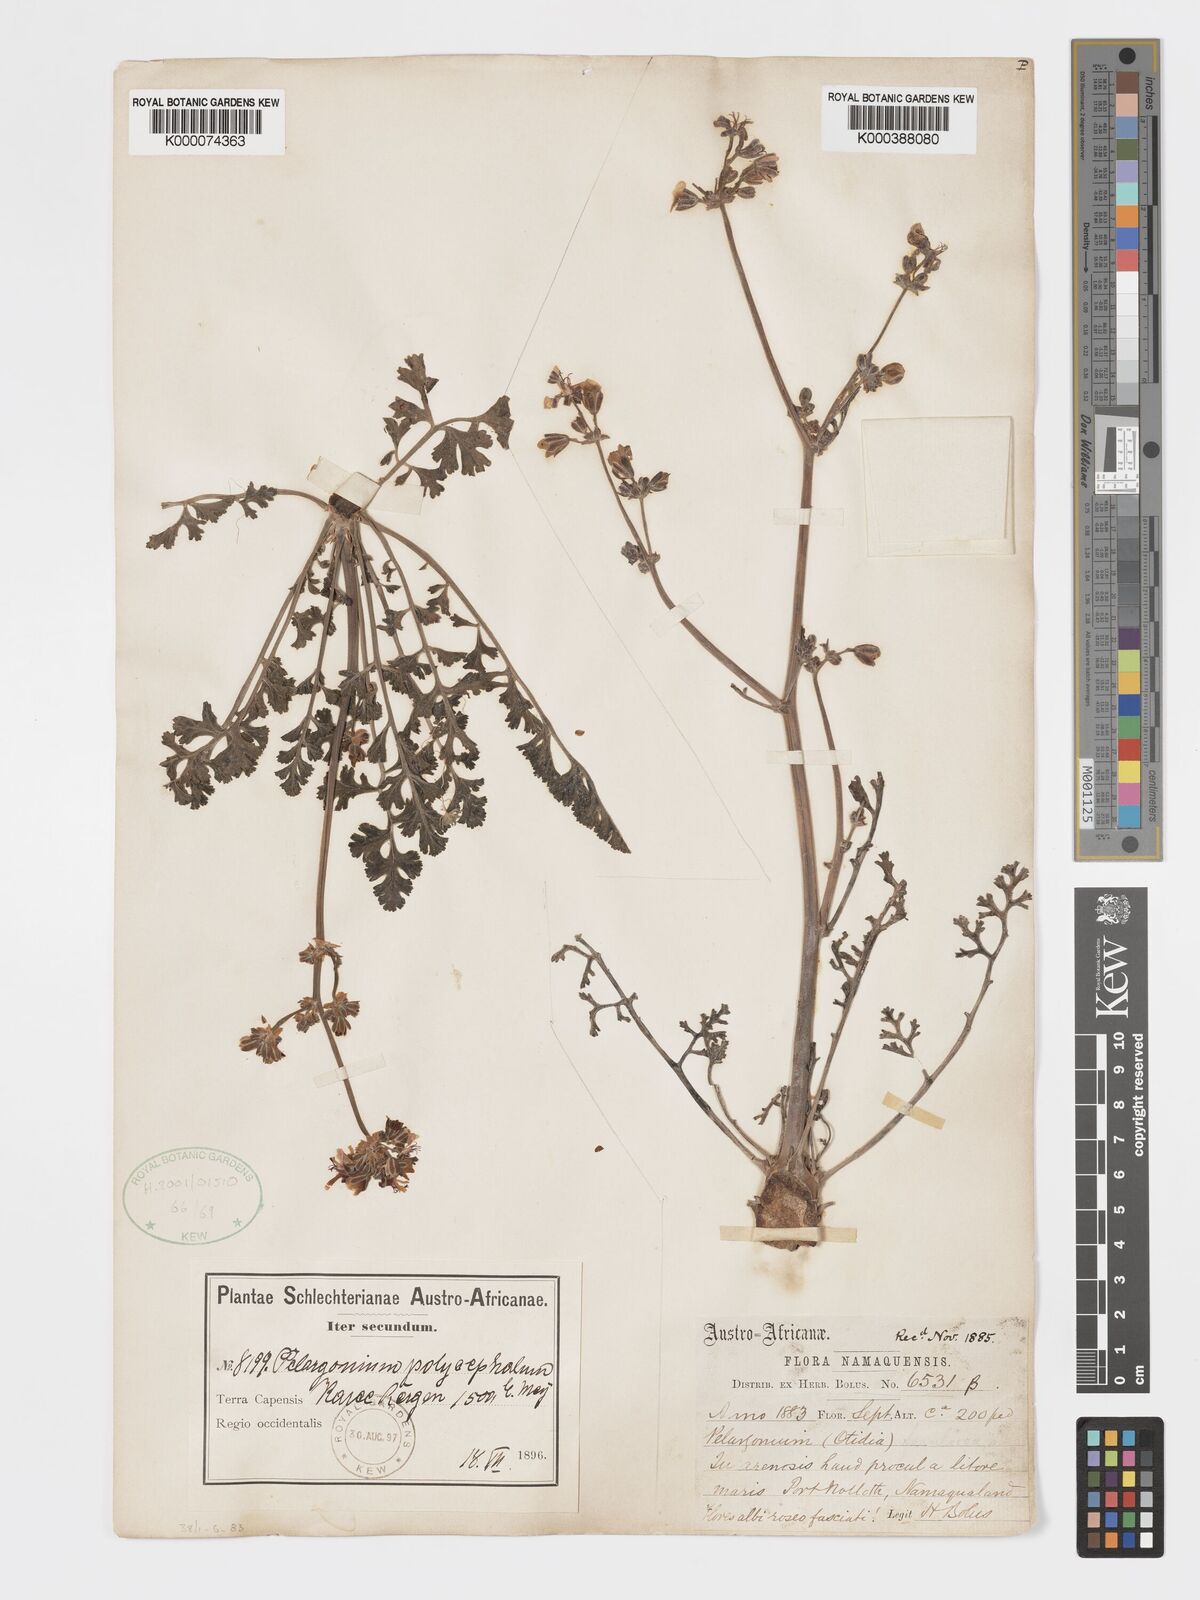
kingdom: Plantae
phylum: Tracheophyta
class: Magnoliopsida
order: Geraniales
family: Geraniaceae
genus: Pelargonium
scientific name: Pelargonium
